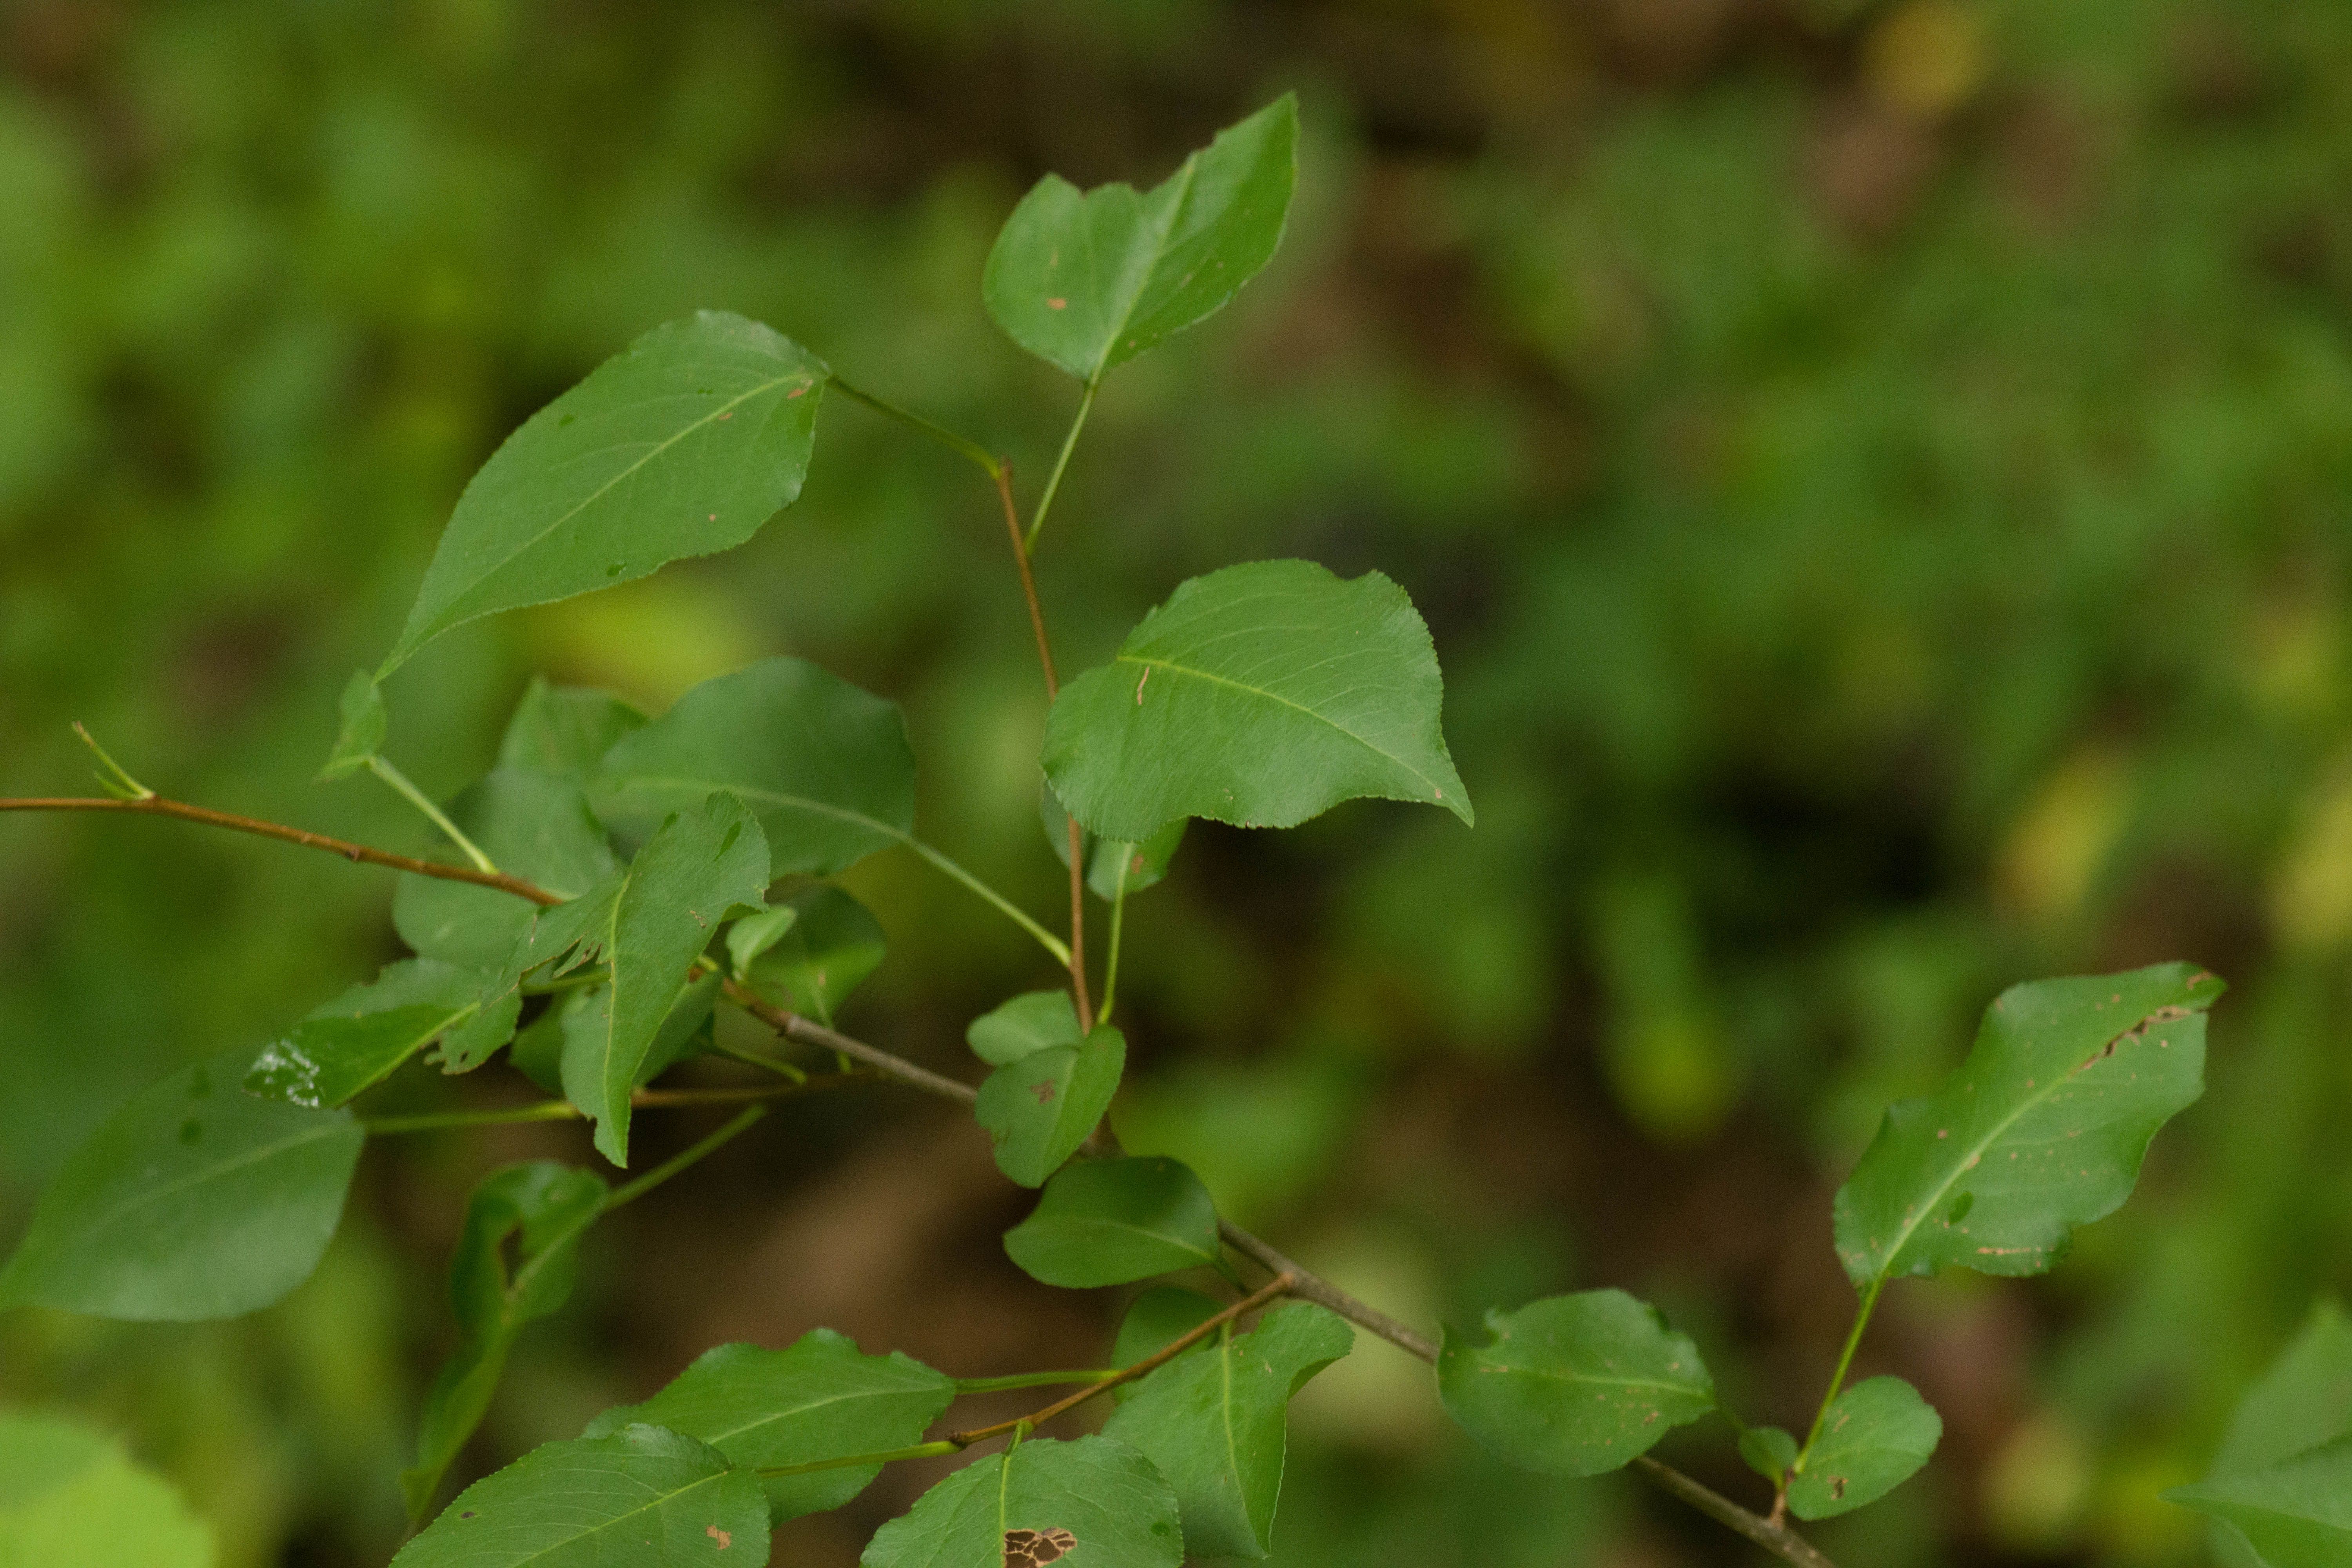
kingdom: Plantae
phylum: Tracheophyta
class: Magnoliopsida
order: Rosales
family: Rosaceae
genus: Pyrus
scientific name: Pyrus calleryana
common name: Callery pear
